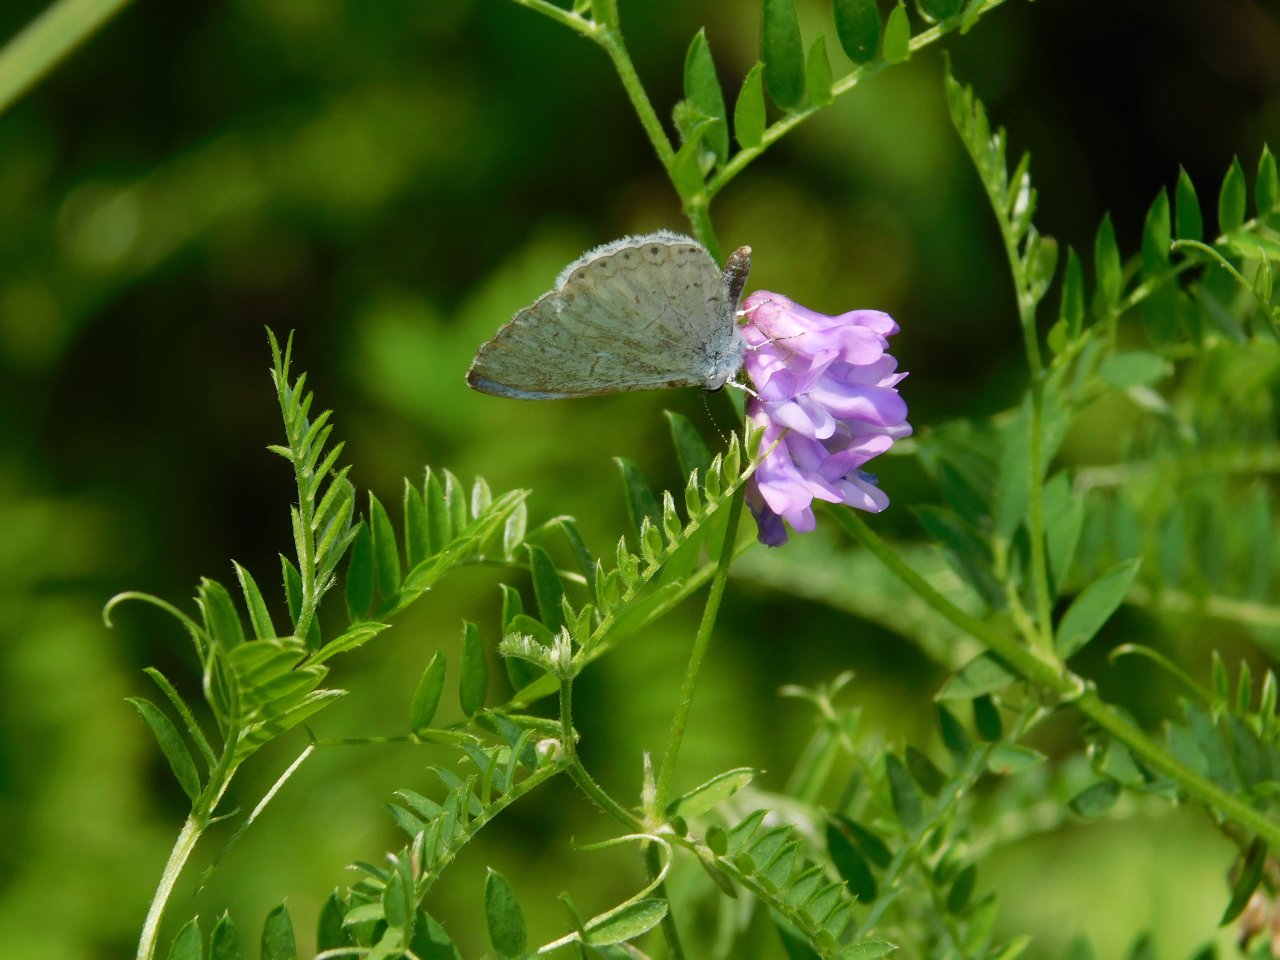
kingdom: Animalia
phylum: Arthropoda
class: Insecta
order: Lepidoptera
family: Lycaenidae
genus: Celastrina
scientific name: Celastrina lucia
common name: Northern Spring Azure
